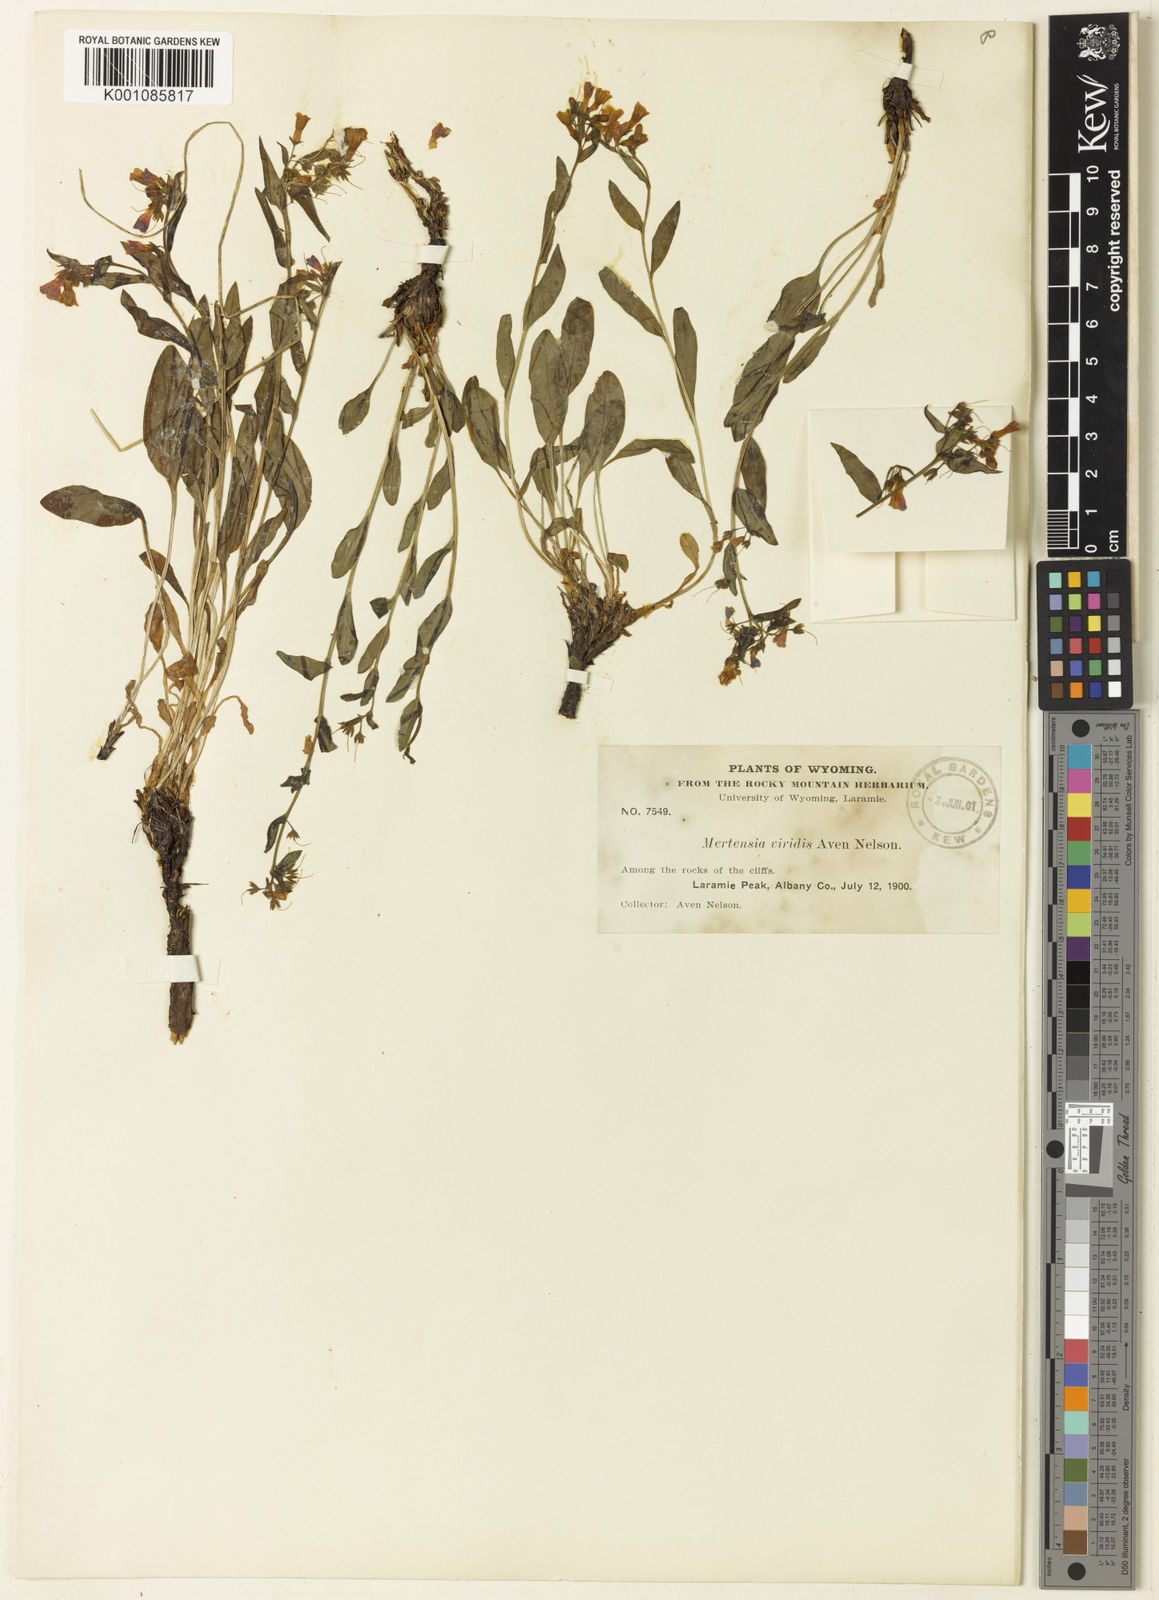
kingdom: Plantae
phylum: Tracheophyta
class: Magnoliopsida
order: Boraginales
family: Boraginaceae
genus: Mertensia
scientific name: Mertensia viridis
